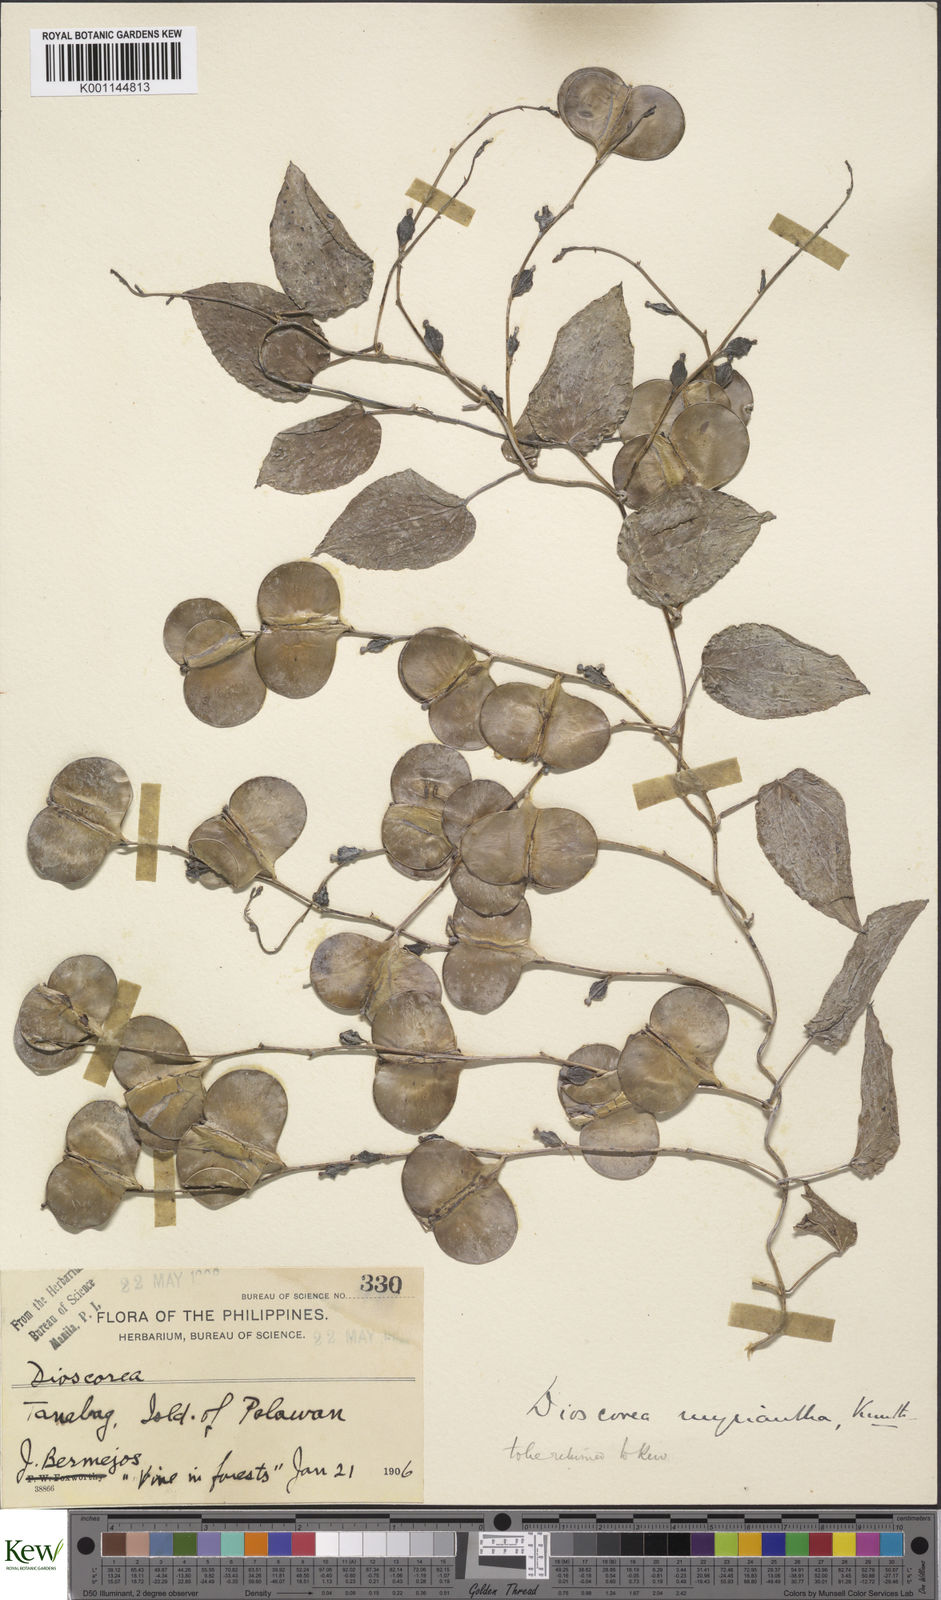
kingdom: Plantae
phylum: Tracheophyta
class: Liliopsida
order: Dioscoreales
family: Dioscoreaceae
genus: Dioscorea
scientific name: Dioscorea filiformis
